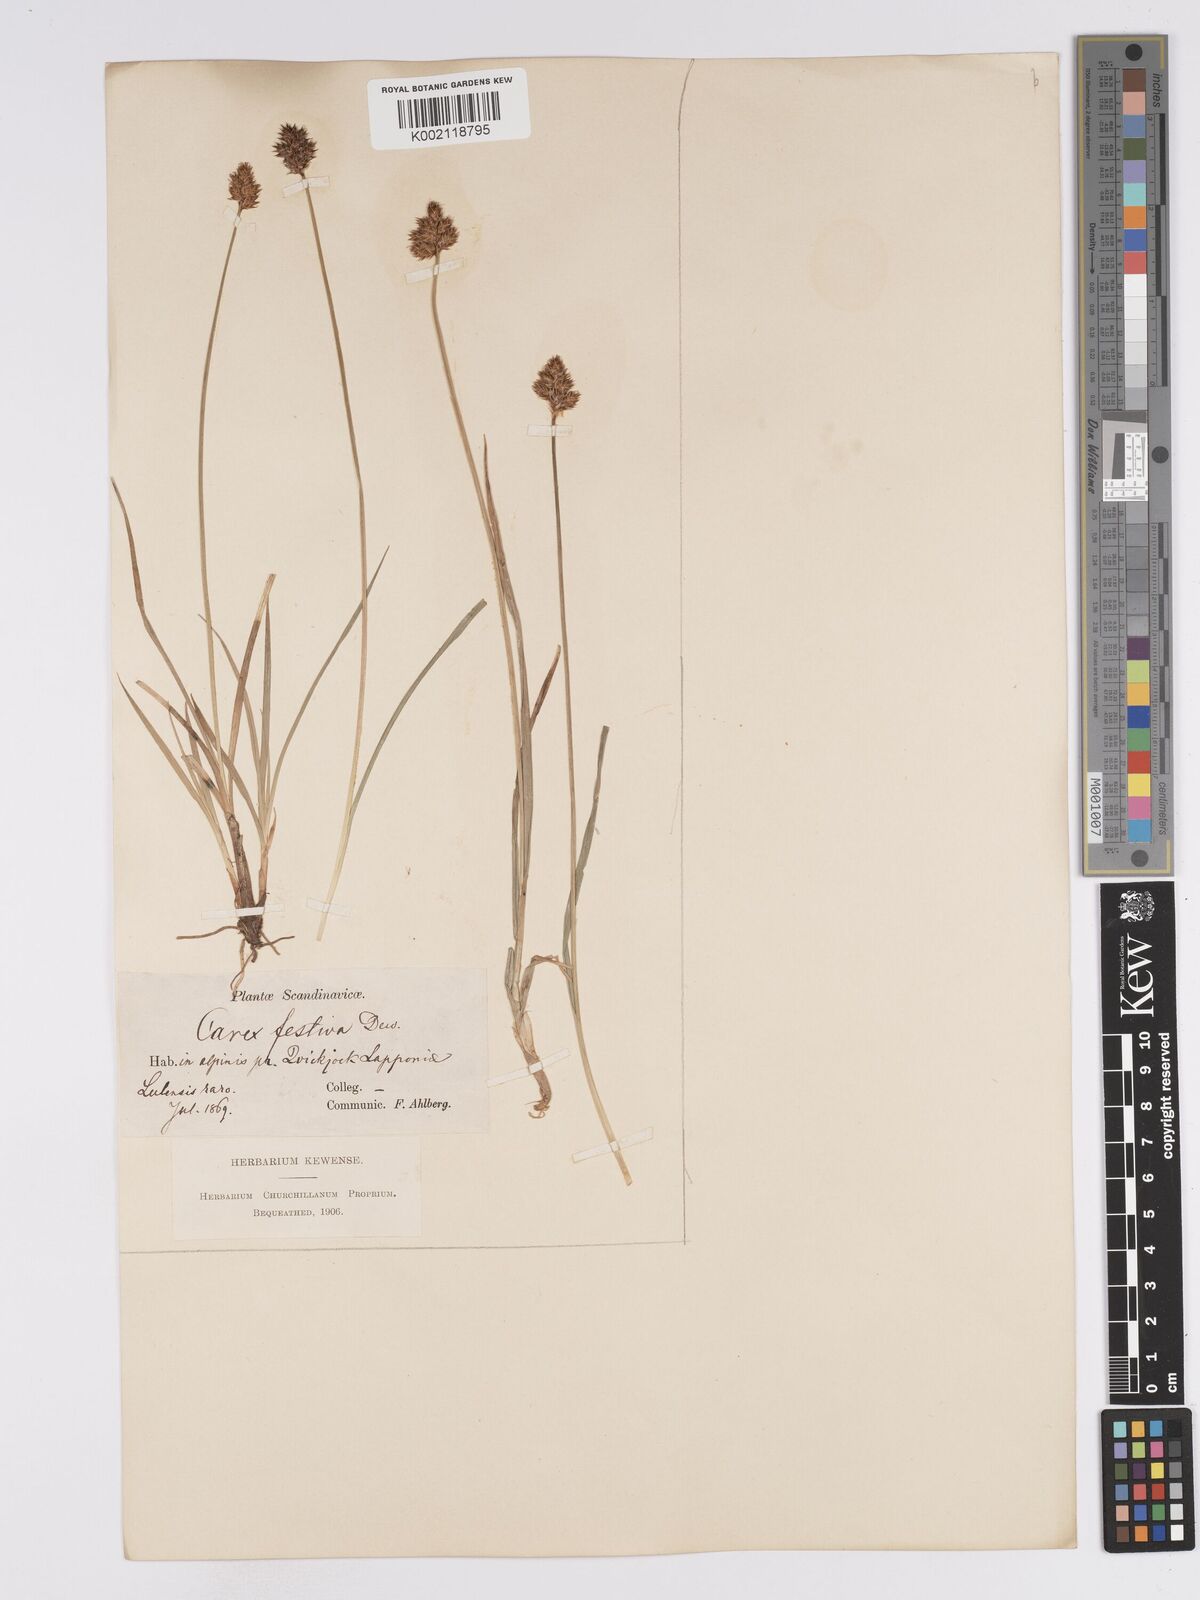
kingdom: Plantae
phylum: Tracheophyta
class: Liliopsida
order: Poales
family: Cyperaceae
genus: Carex
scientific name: Carex macloviana
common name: Falkland island sedge
